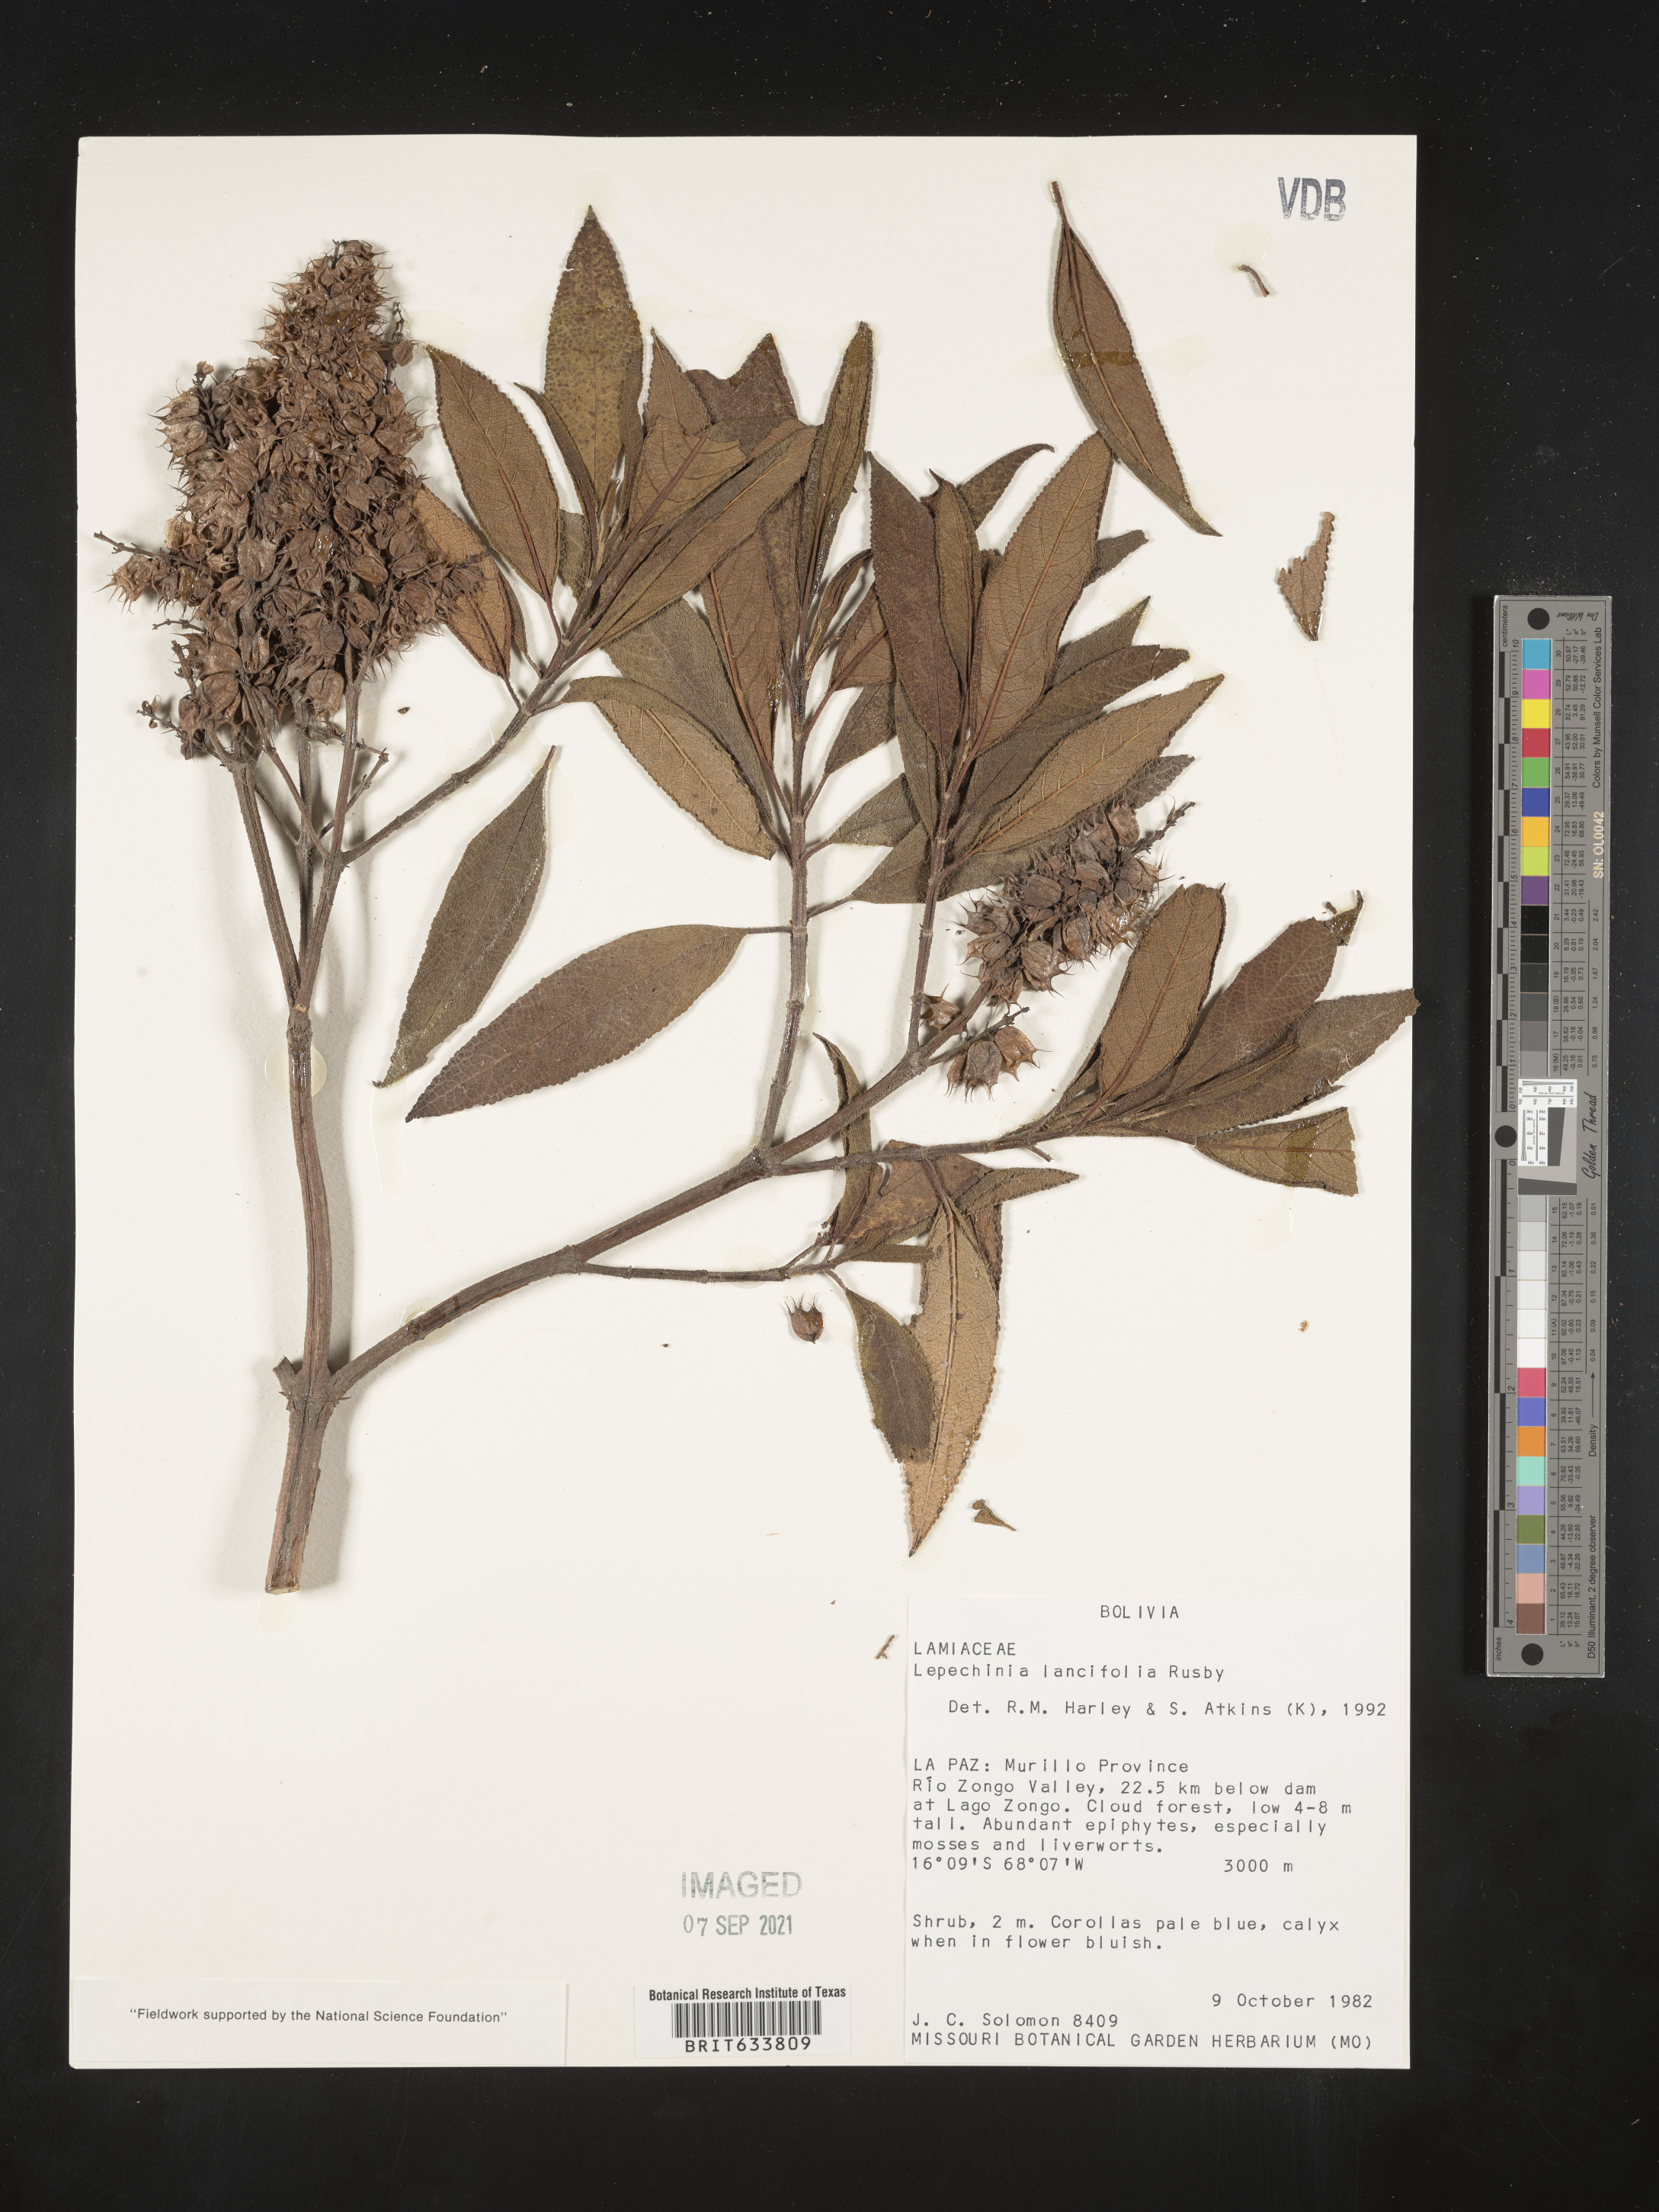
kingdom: Plantae
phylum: Tracheophyta
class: Magnoliopsida
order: Lamiales
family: Lamiaceae
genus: Lepechinia
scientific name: Lepechinia
